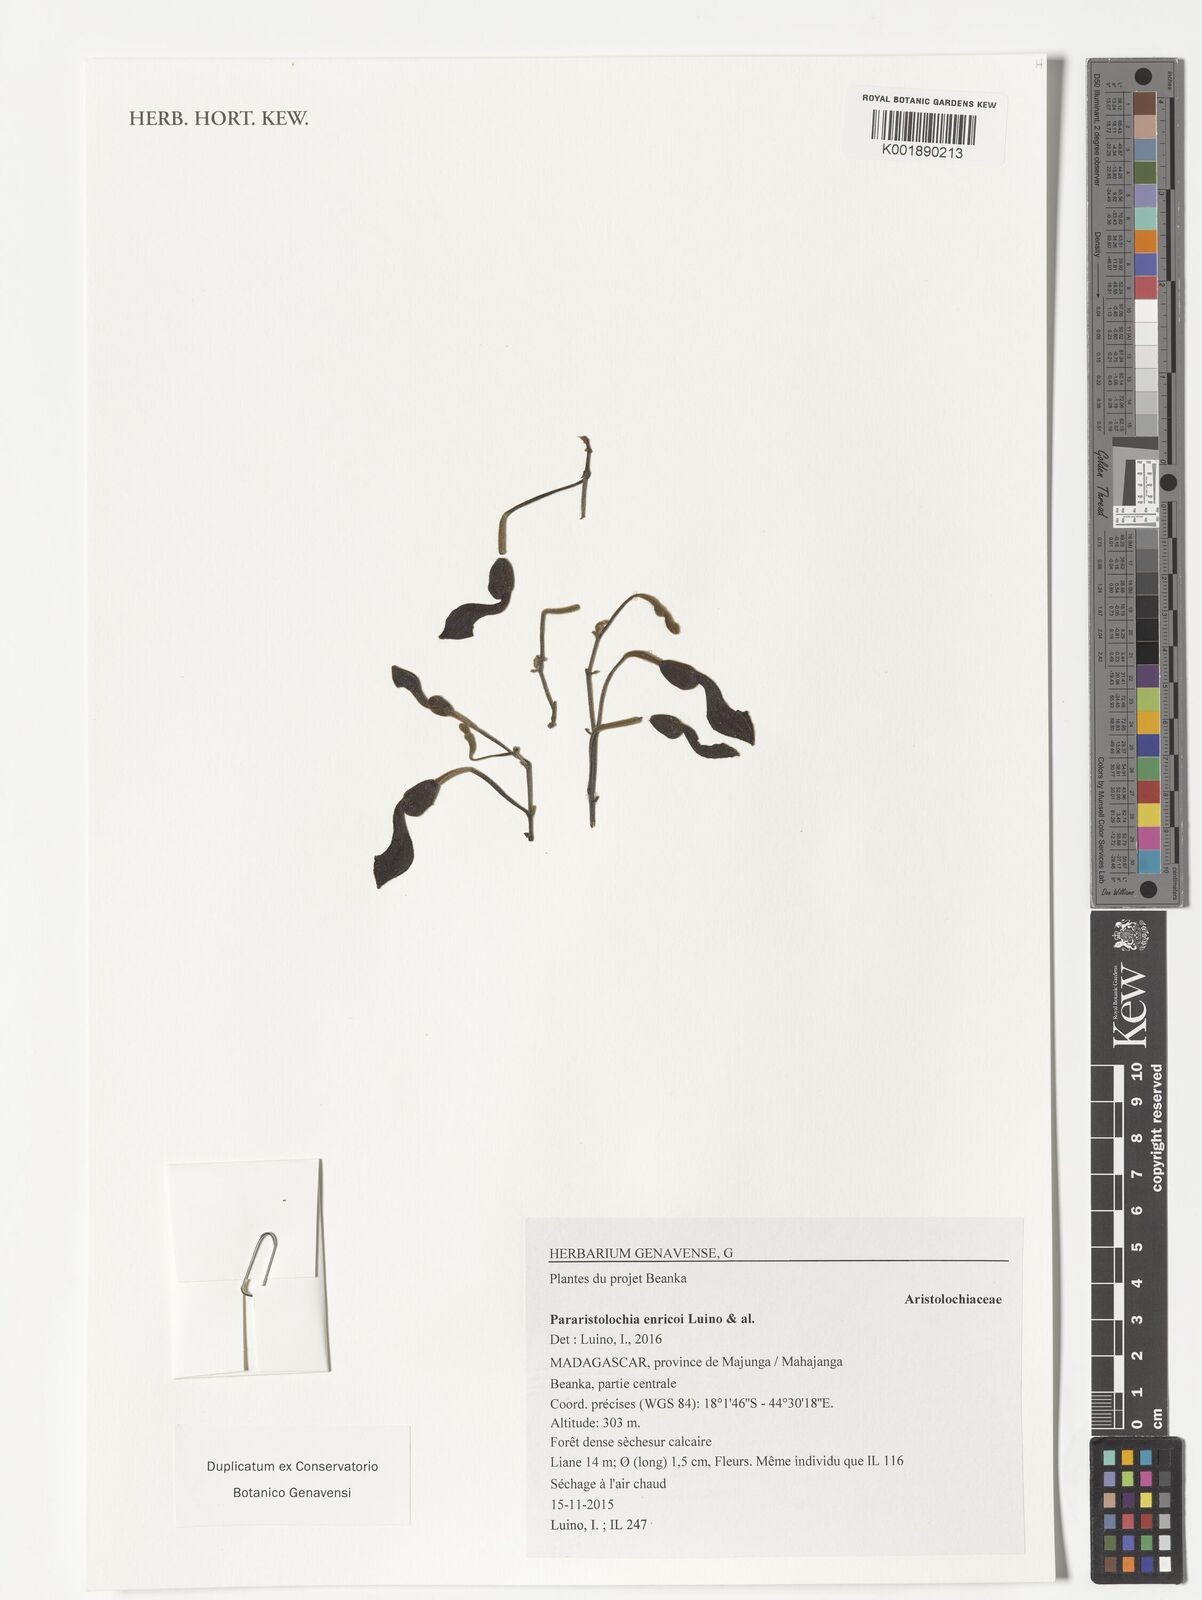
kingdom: Plantae
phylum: Tracheophyta
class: Magnoliopsida
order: Piperales
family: Aristolochiaceae
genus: Aristolochia
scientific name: Aristolochia enricoi
